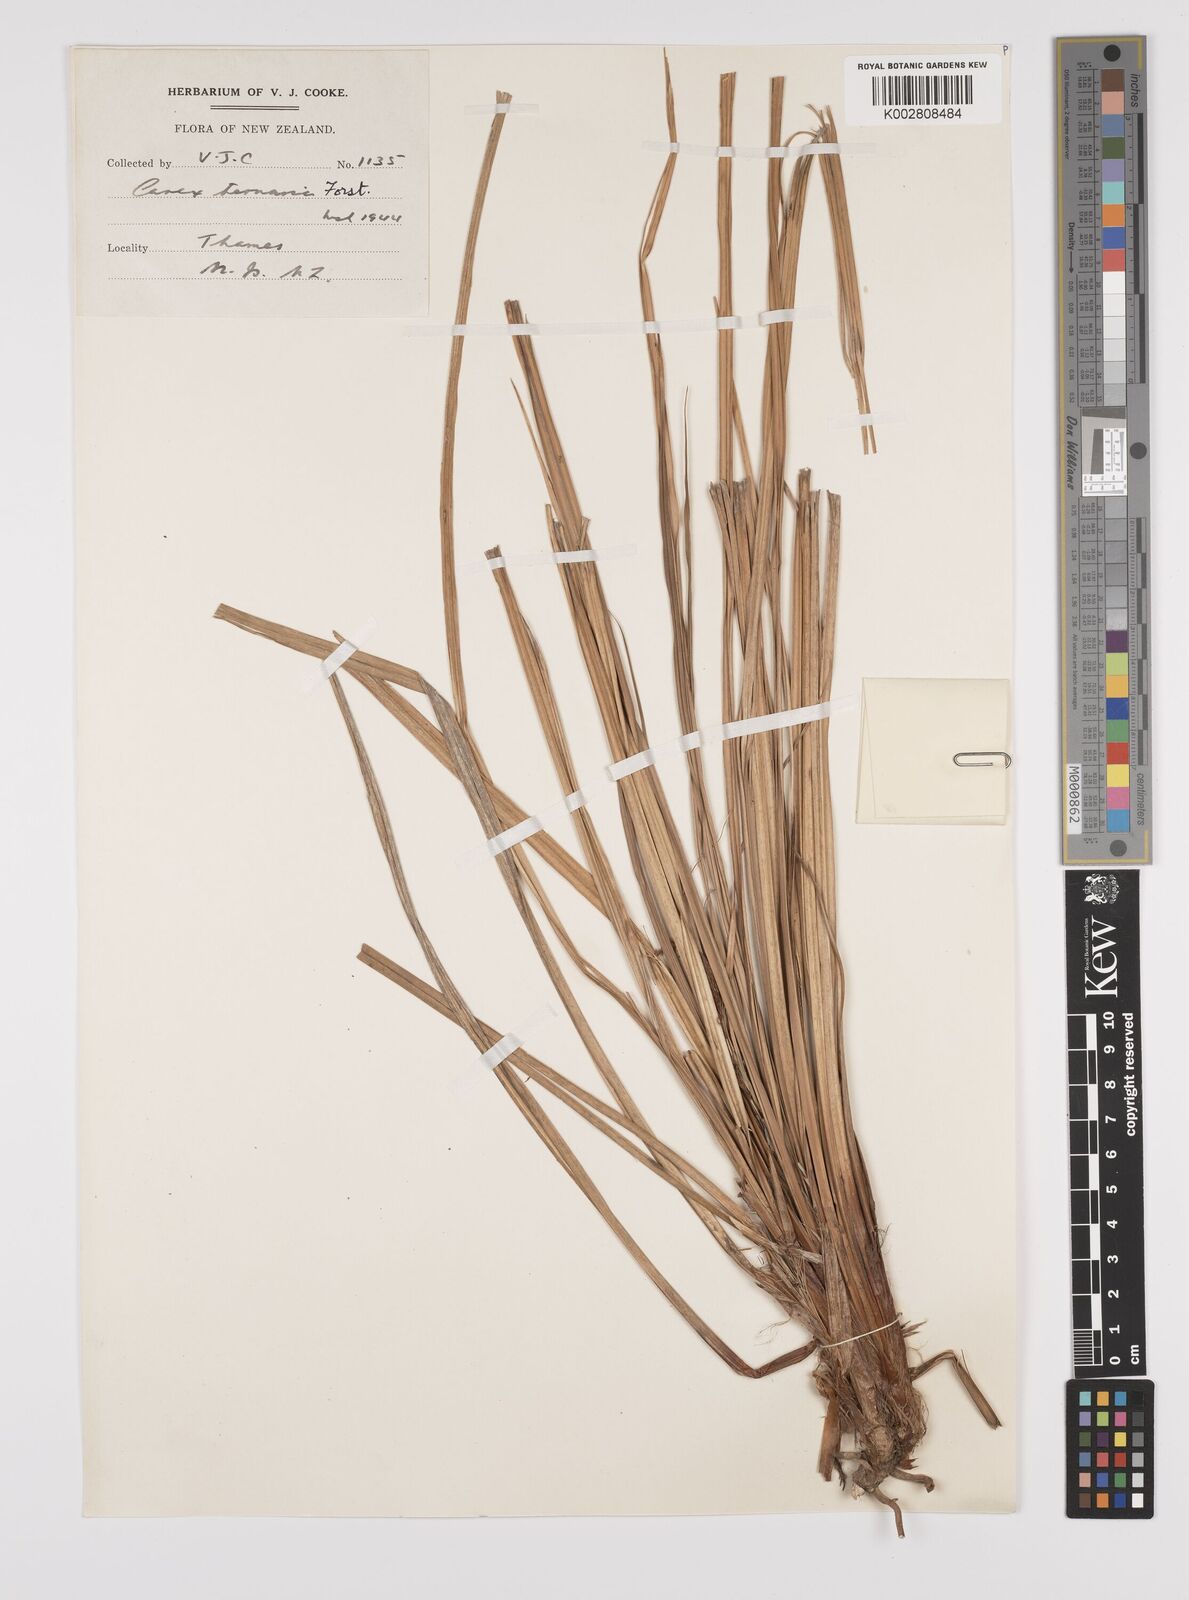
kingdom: Plantae
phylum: Tracheophyta
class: Liliopsida
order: Poales
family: Cyperaceae
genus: Carex
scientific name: Carex geminata
